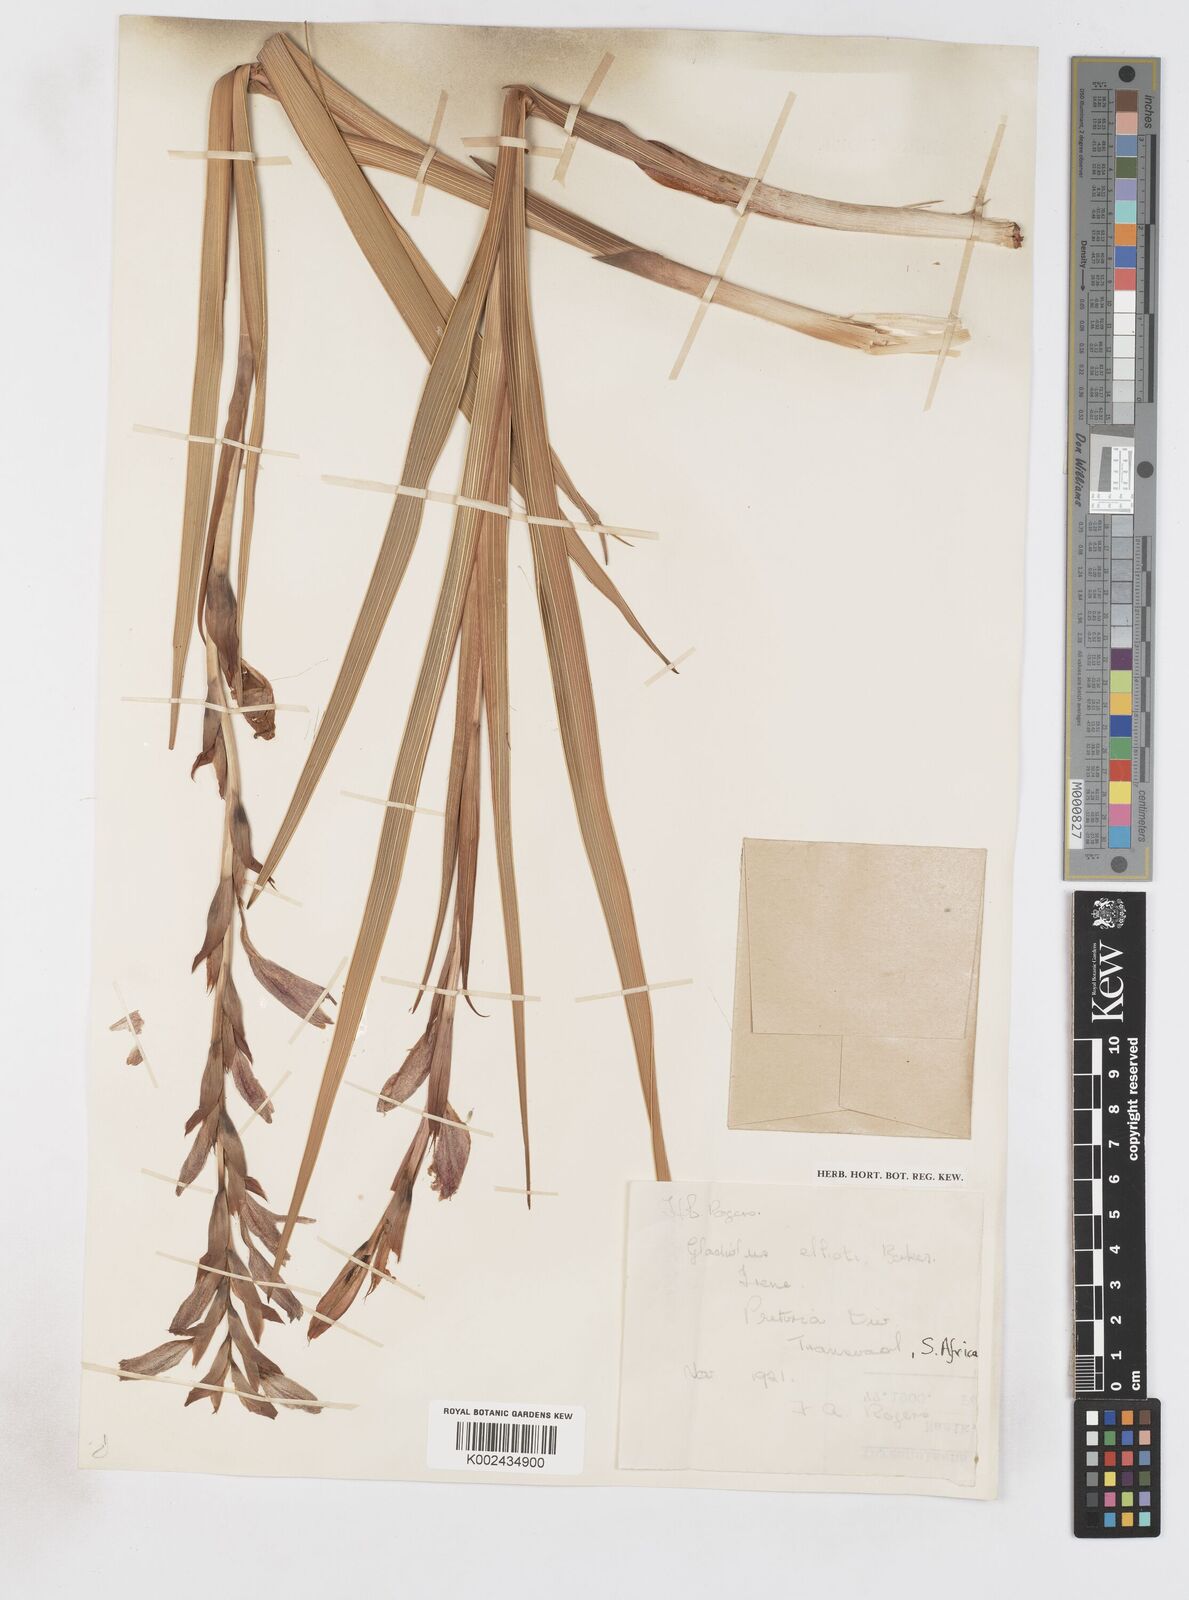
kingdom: Plantae
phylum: Tracheophyta
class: Liliopsida
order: Asparagales
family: Iridaceae
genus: Gladiolus
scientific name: Gladiolus elliotii
